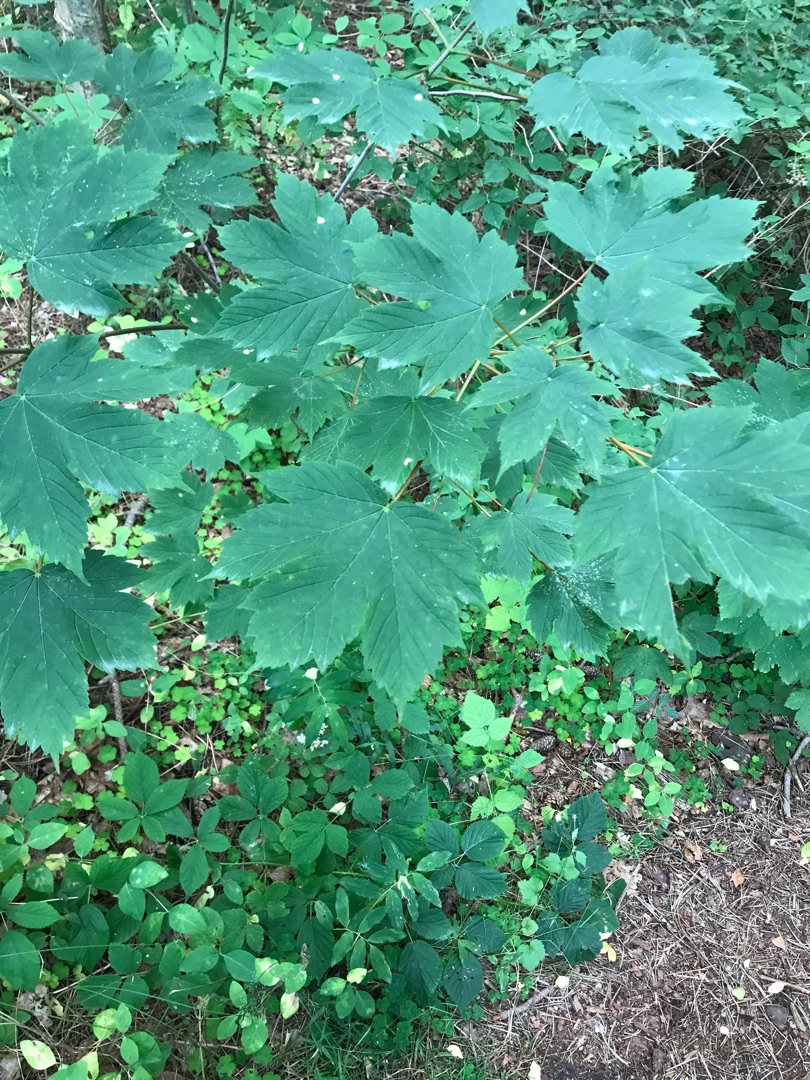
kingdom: Plantae
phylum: Tracheophyta
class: Magnoliopsida
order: Sapindales
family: Sapindaceae
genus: Acer
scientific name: Acer pseudoplatanus
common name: Ahorn
